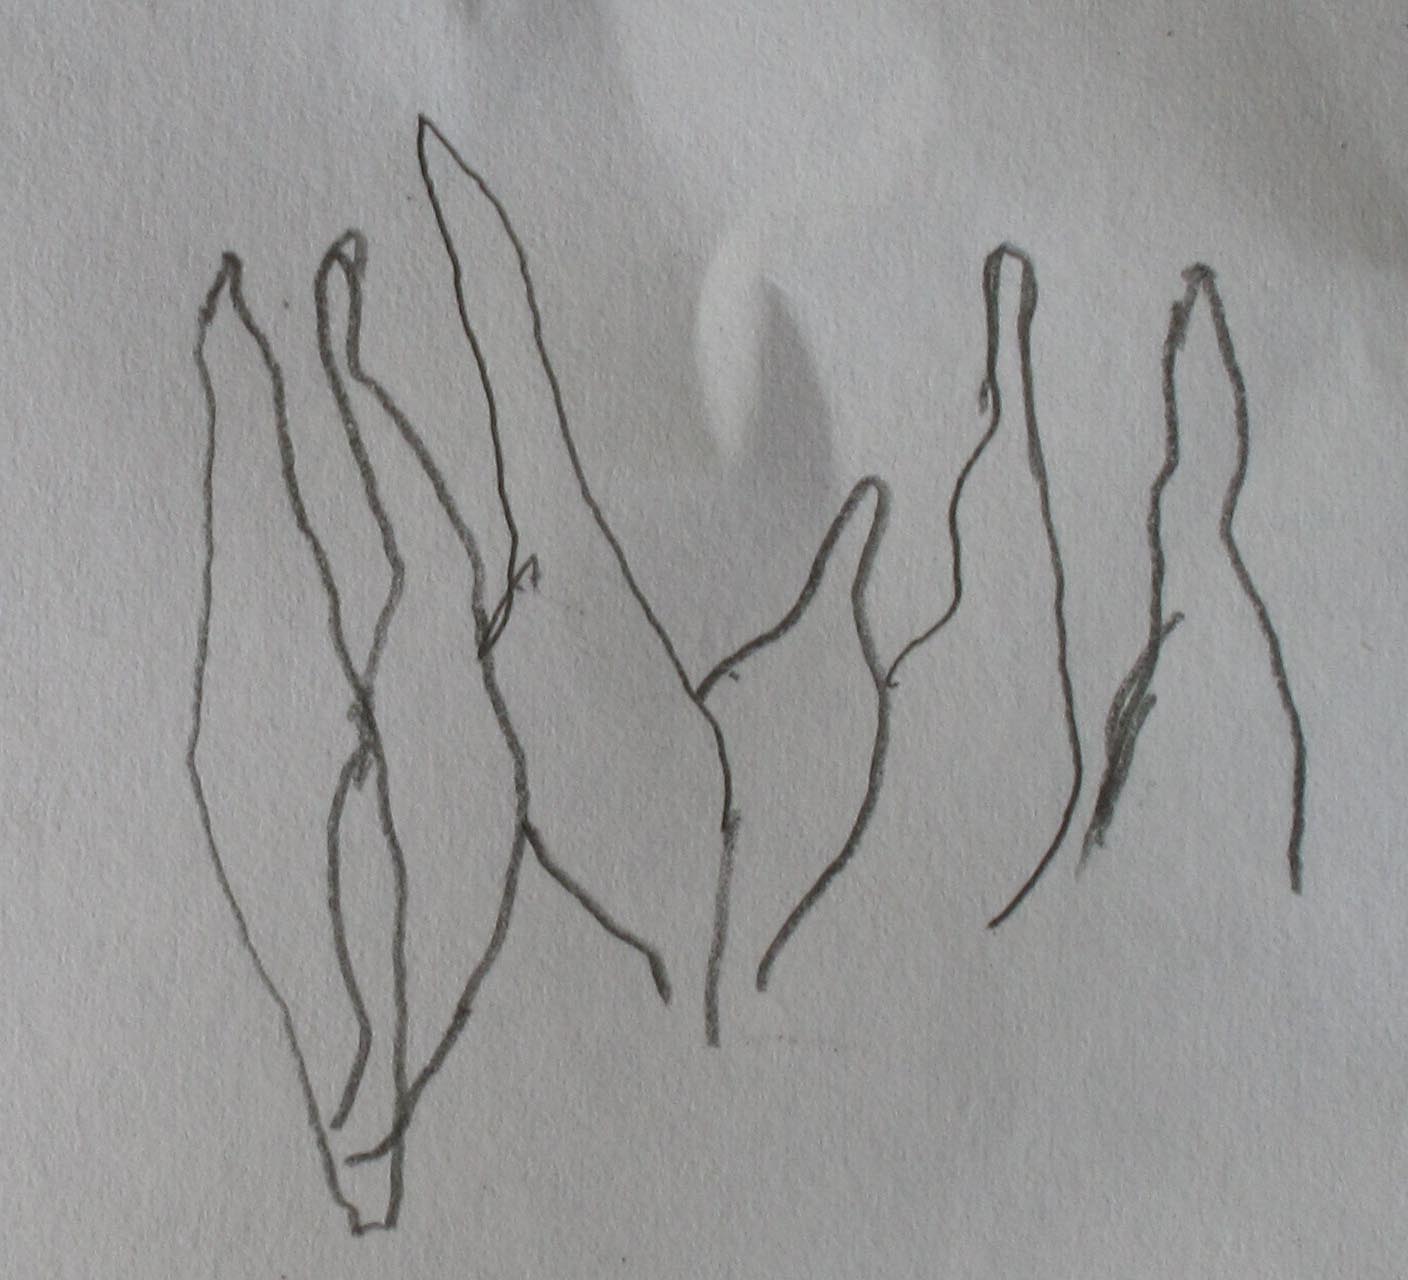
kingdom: Fungi
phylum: Basidiomycota
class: Agaricomycetes
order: Agaricales
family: Bolbitiaceae
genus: Conocybe
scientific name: Conocybe rugosa
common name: giftig dansehat
